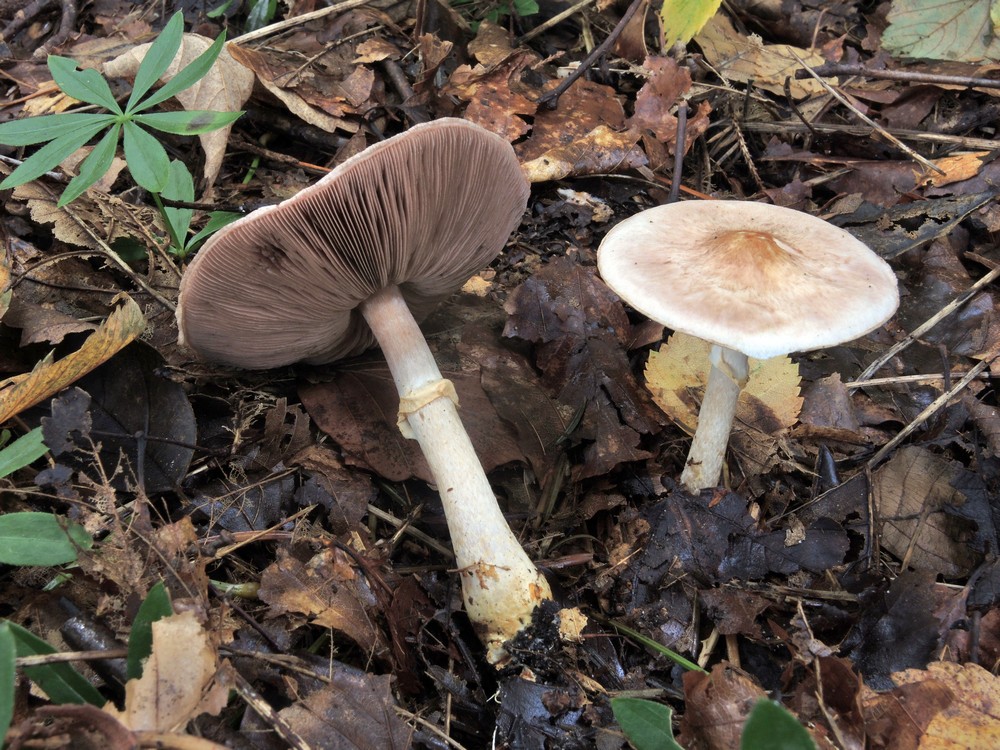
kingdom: Fungi
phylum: Basidiomycota
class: Agaricomycetes
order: Agaricales
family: Agaricaceae
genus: Agaricus
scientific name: Agaricus sylvaticus
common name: lille blod-champignon
